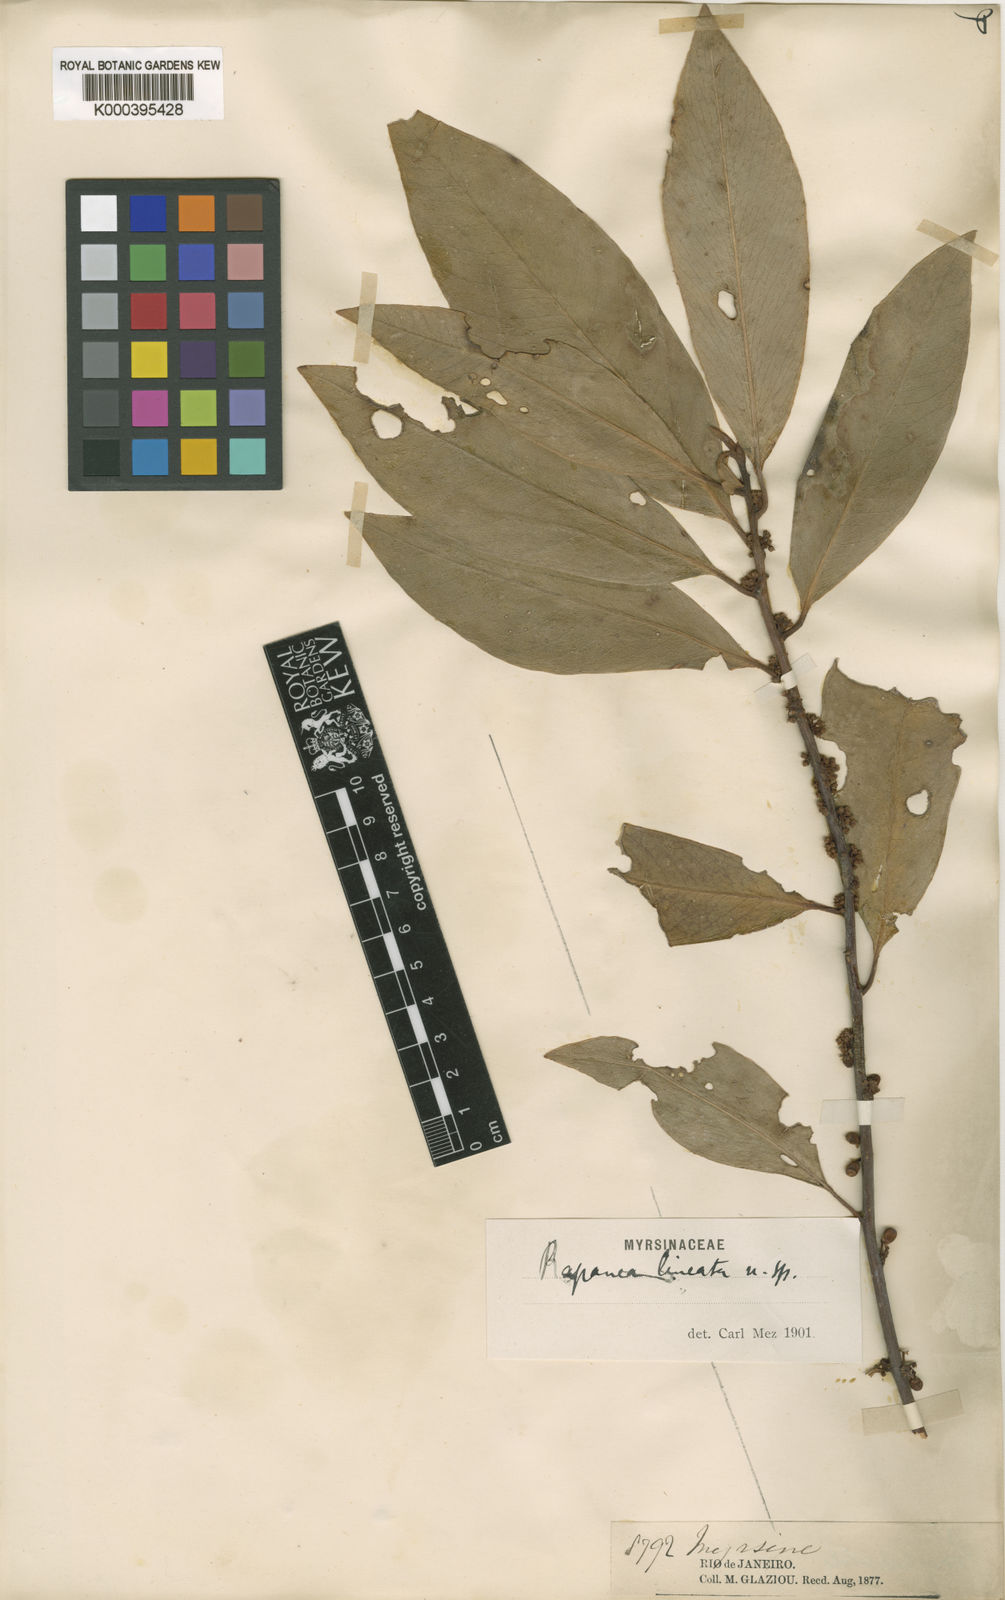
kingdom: Plantae
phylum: Tracheophyta
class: Magnoliopsida
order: Ericales
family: Primulaceae
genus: Myrsine
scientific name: Myrsine lineata
